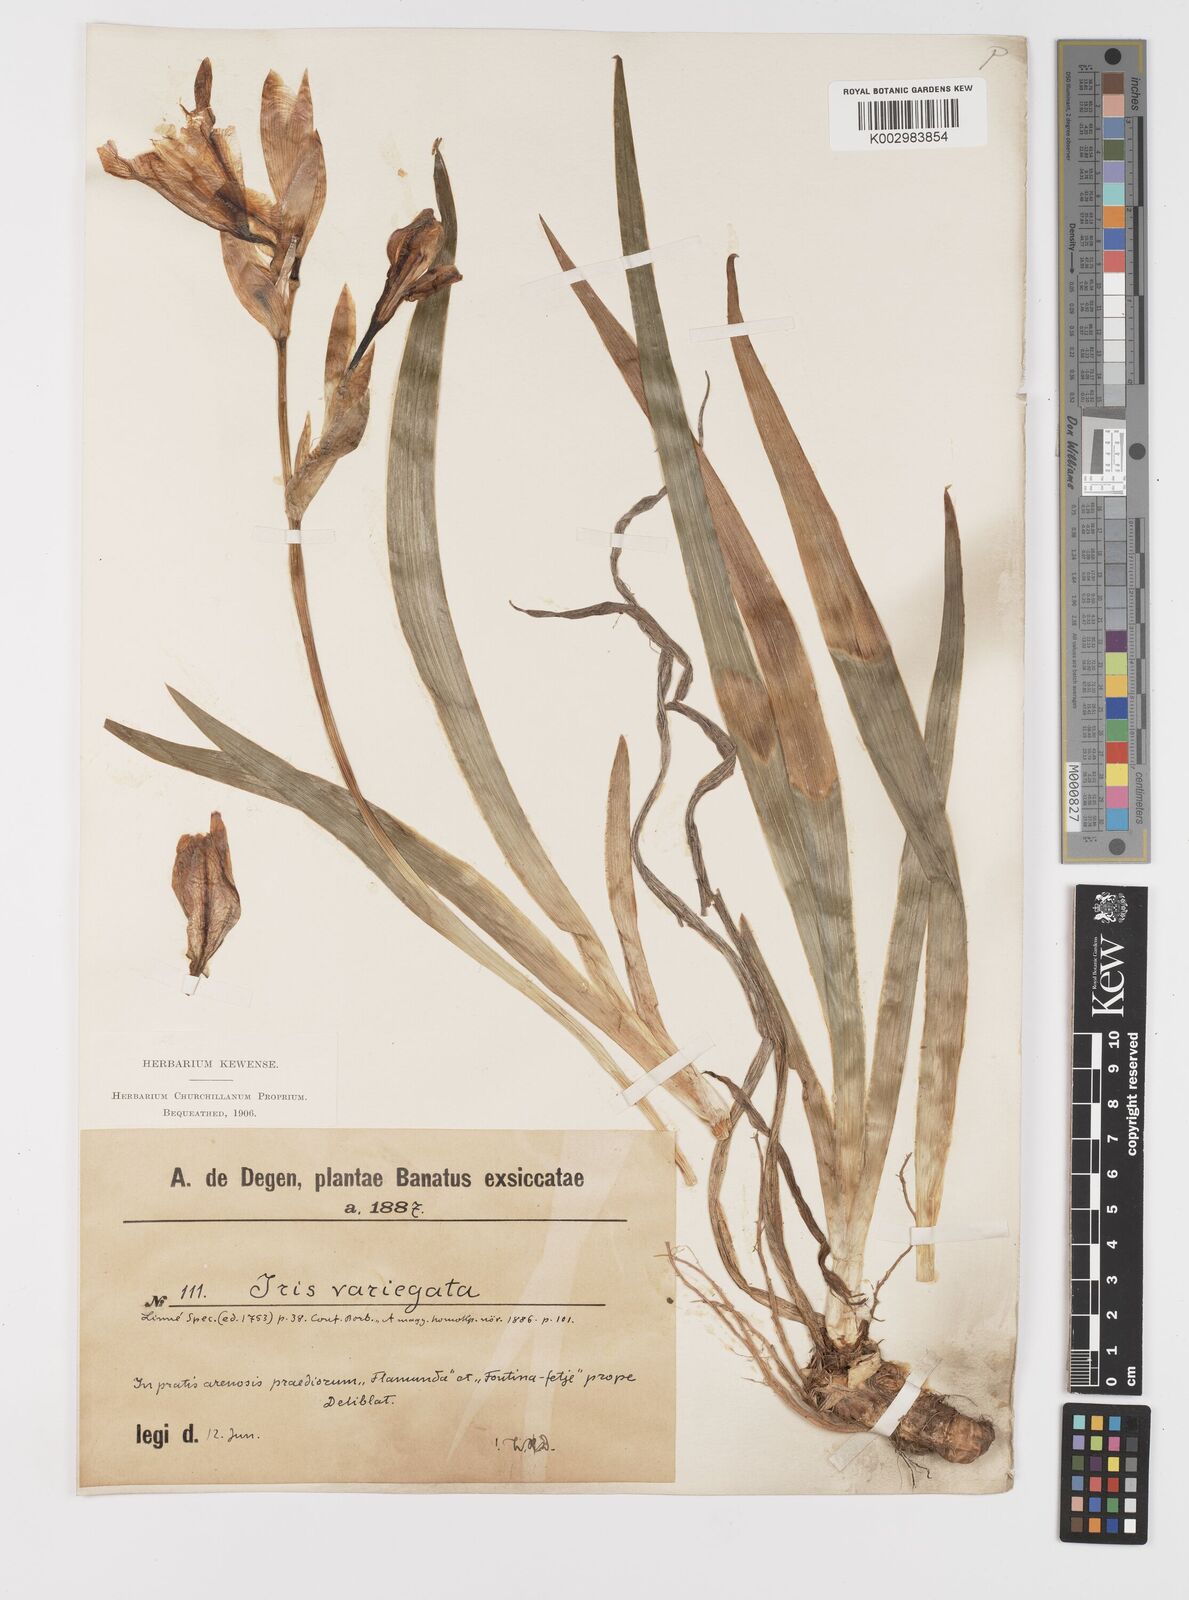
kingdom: Plantae
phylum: Tracheophyta
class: Liliopsida
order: Asparagales
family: Iridaceae
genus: Iris
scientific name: Iris variegata
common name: Hungarian iris
